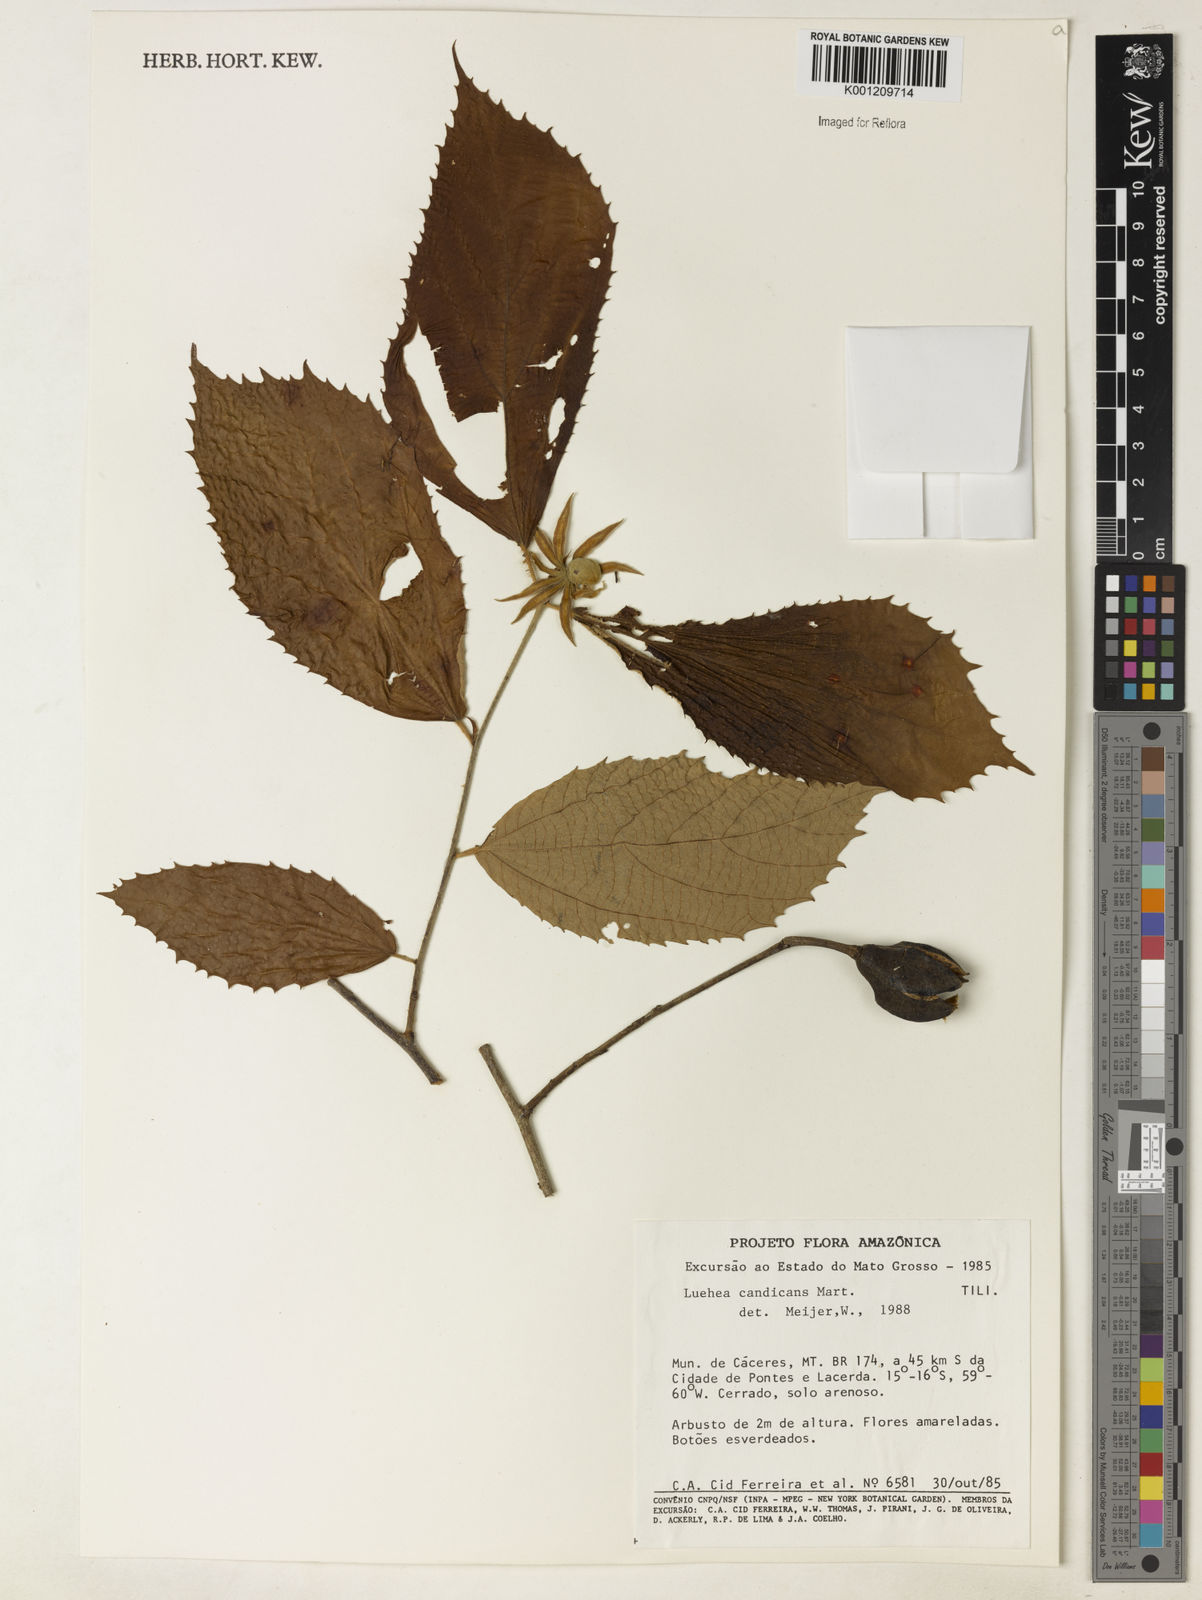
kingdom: Plantae
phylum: Tracheophyta
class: Magnoliopsida
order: Malvales
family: Malvaceae
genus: Luehea
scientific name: Luehea candicans
